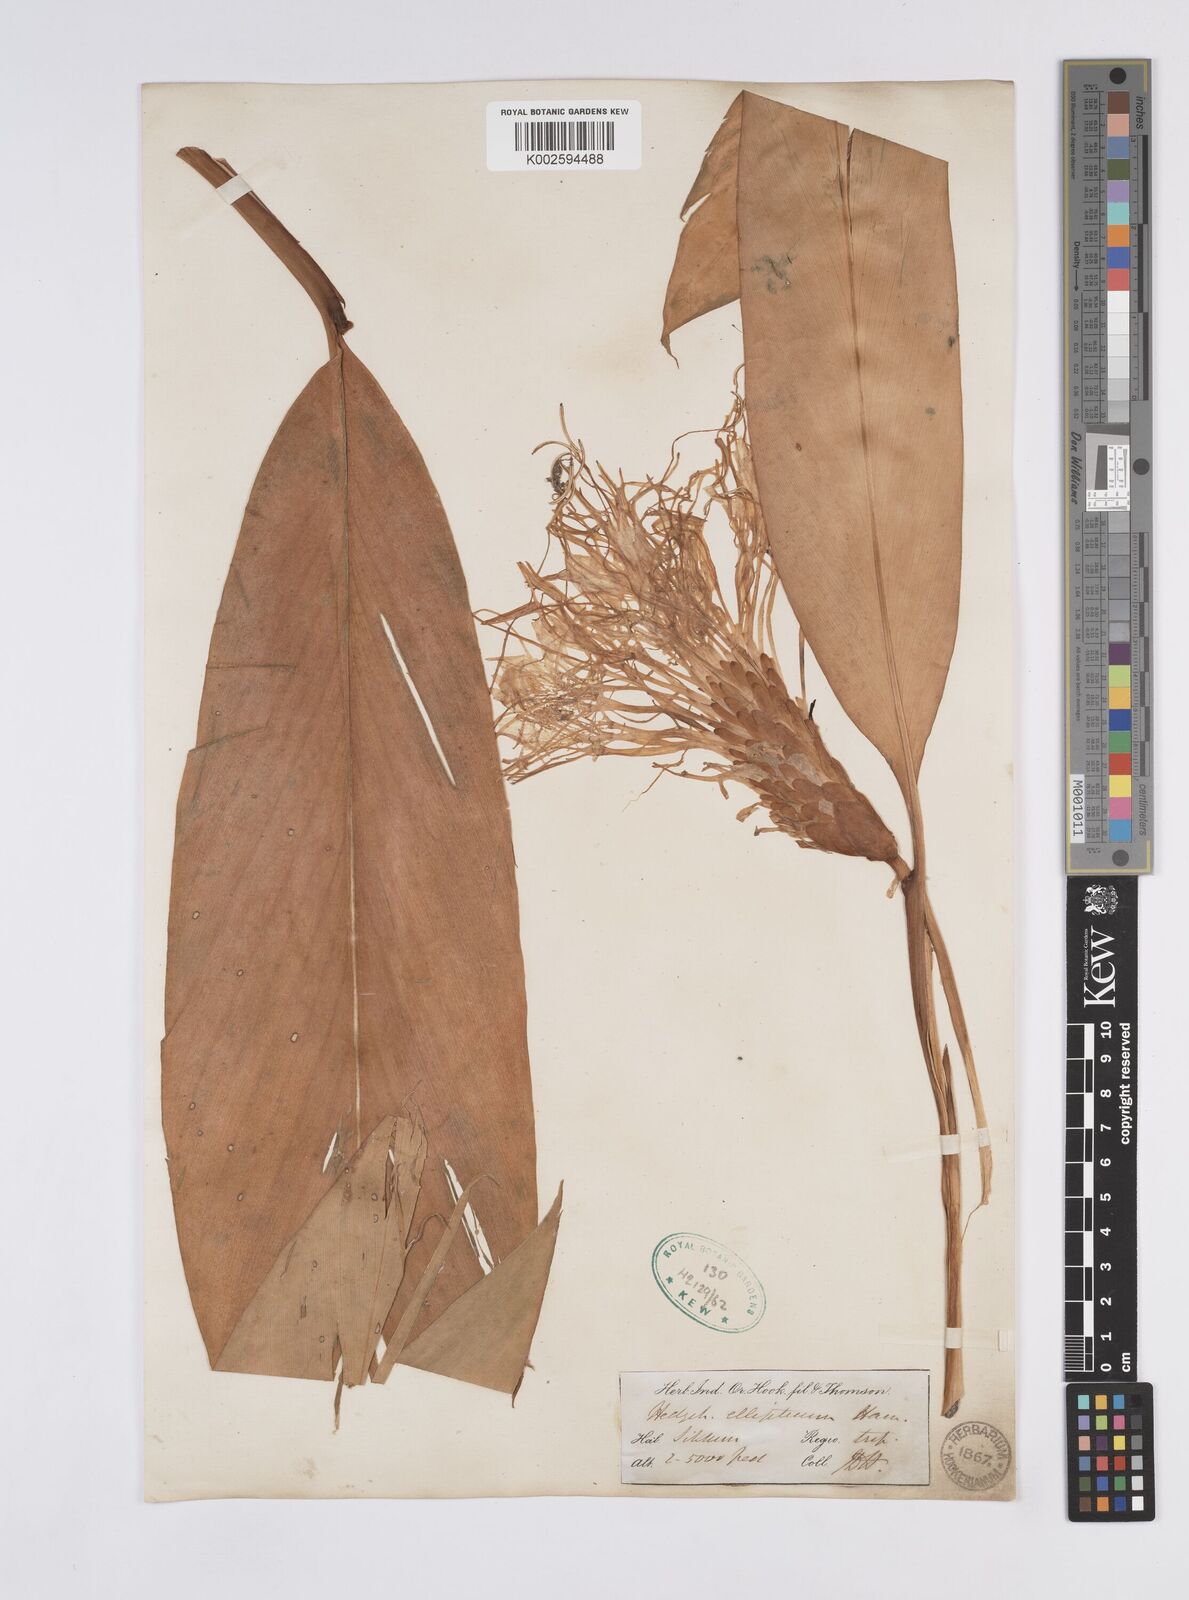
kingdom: Plantae
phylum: Tracheophyta
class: Liliopsida
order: Zingiberales
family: Zingiberaceae
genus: Hedychium
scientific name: Hedychium ellipticum
